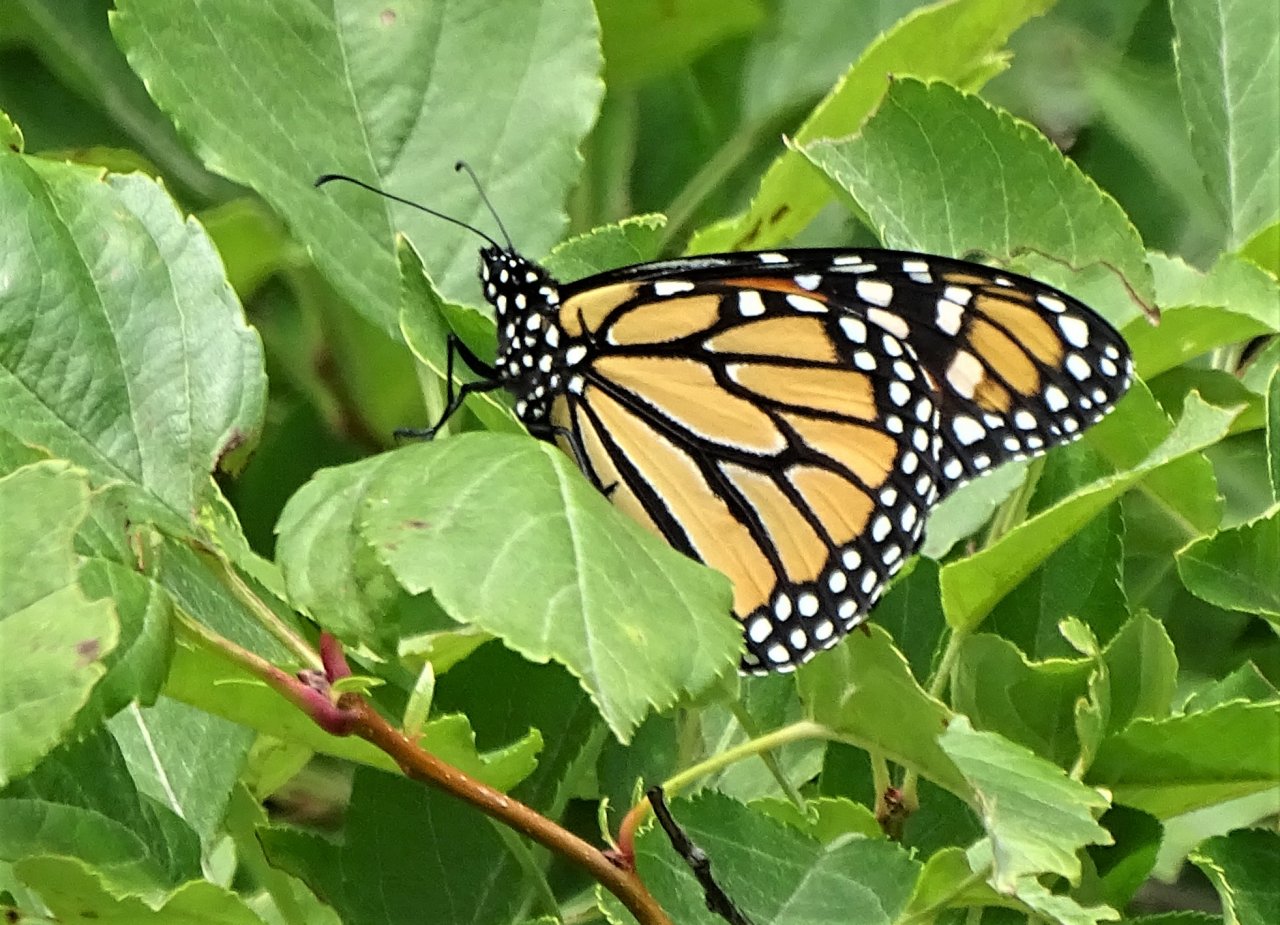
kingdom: Animalia
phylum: Arthropoda
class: Insecta
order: Lepidoptera
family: Nymphalidae
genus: Danaus
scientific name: Danaus plexippus
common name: Monarch
